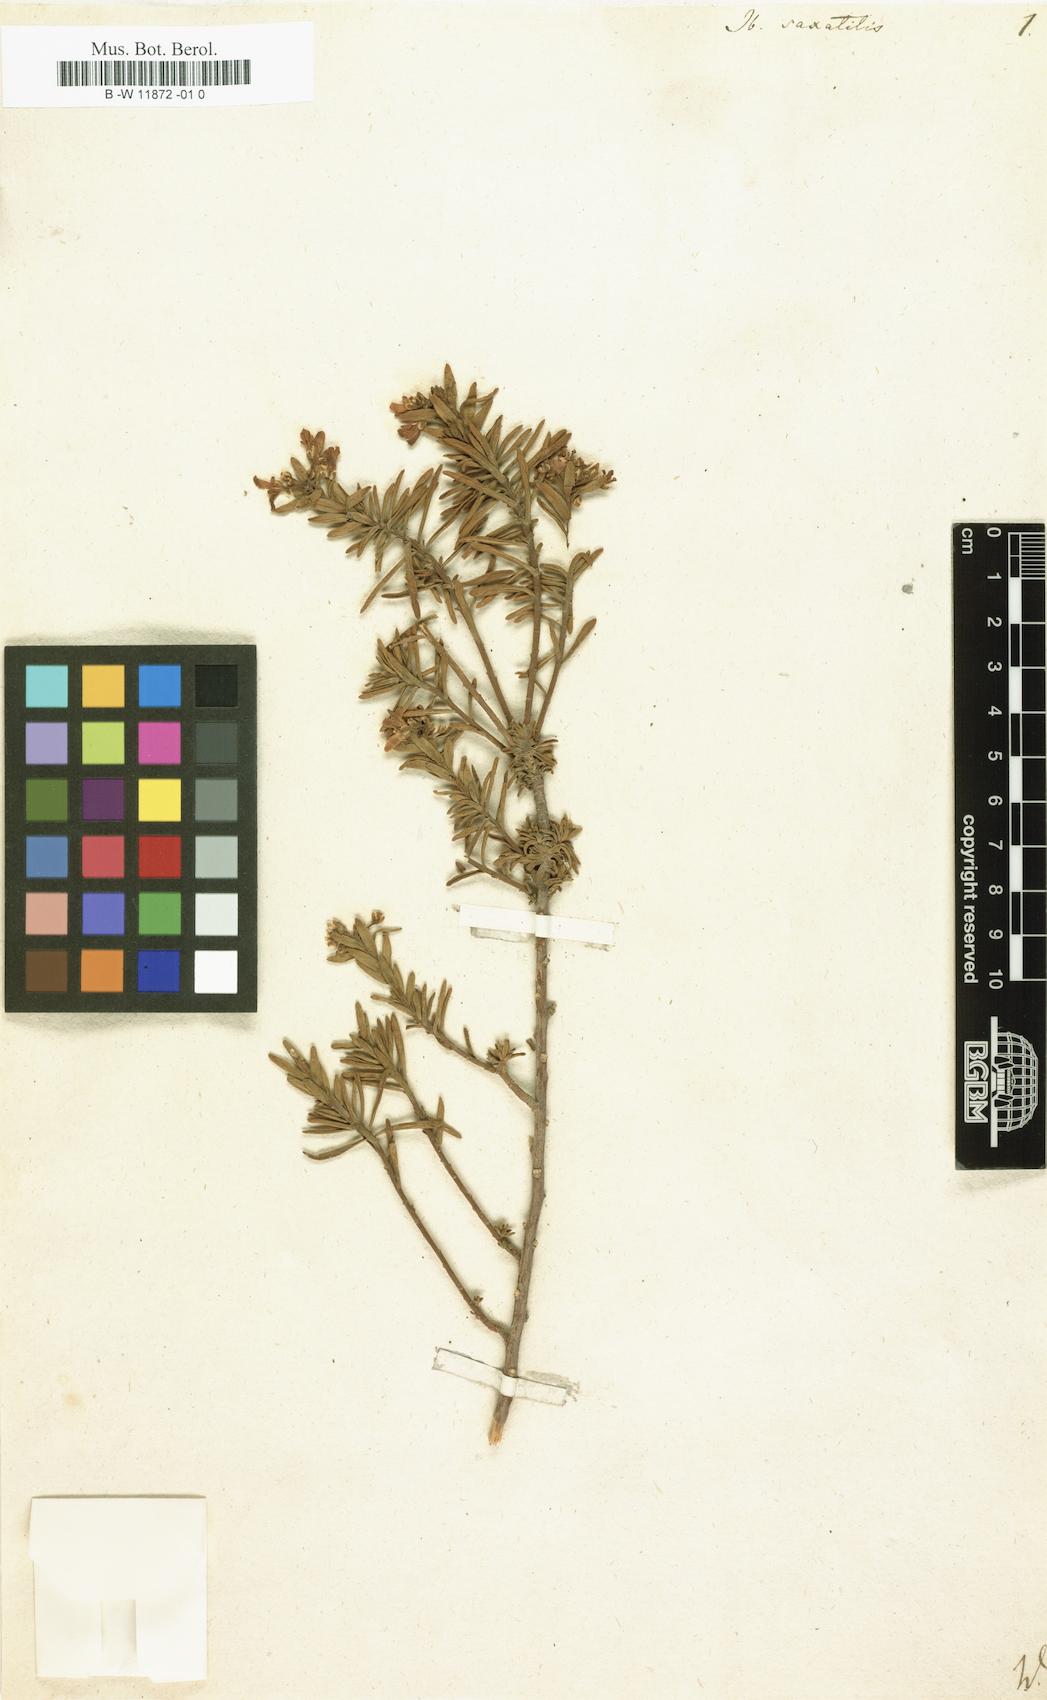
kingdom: Plantae
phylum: Tracheophyta
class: Magnoliopsida
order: Brassicales
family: Brassicaceae
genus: Iberis
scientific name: Iberis saxatilis
